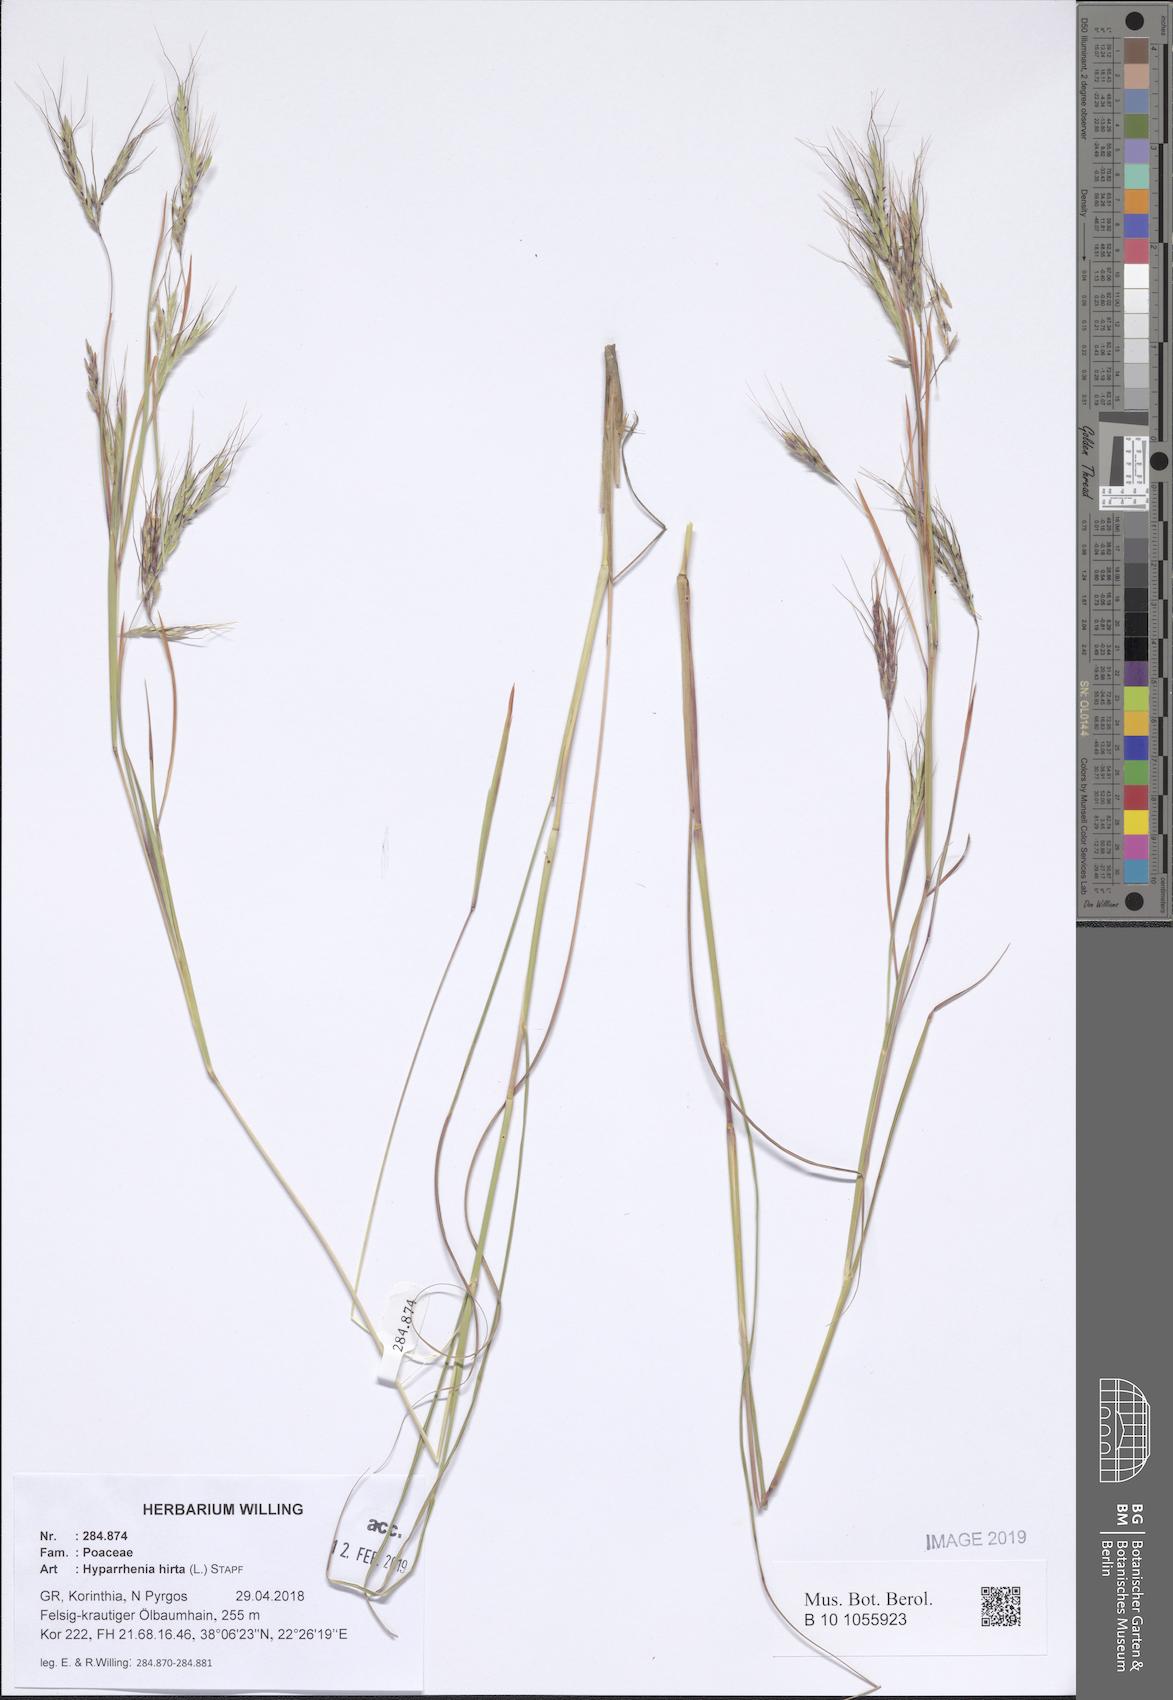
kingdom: Plantae
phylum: Tracheophyta
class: Liliopsida
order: Poales
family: Poaceae
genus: Hyparrhenia
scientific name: Hyparrhenia hirta
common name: Thatching grass
